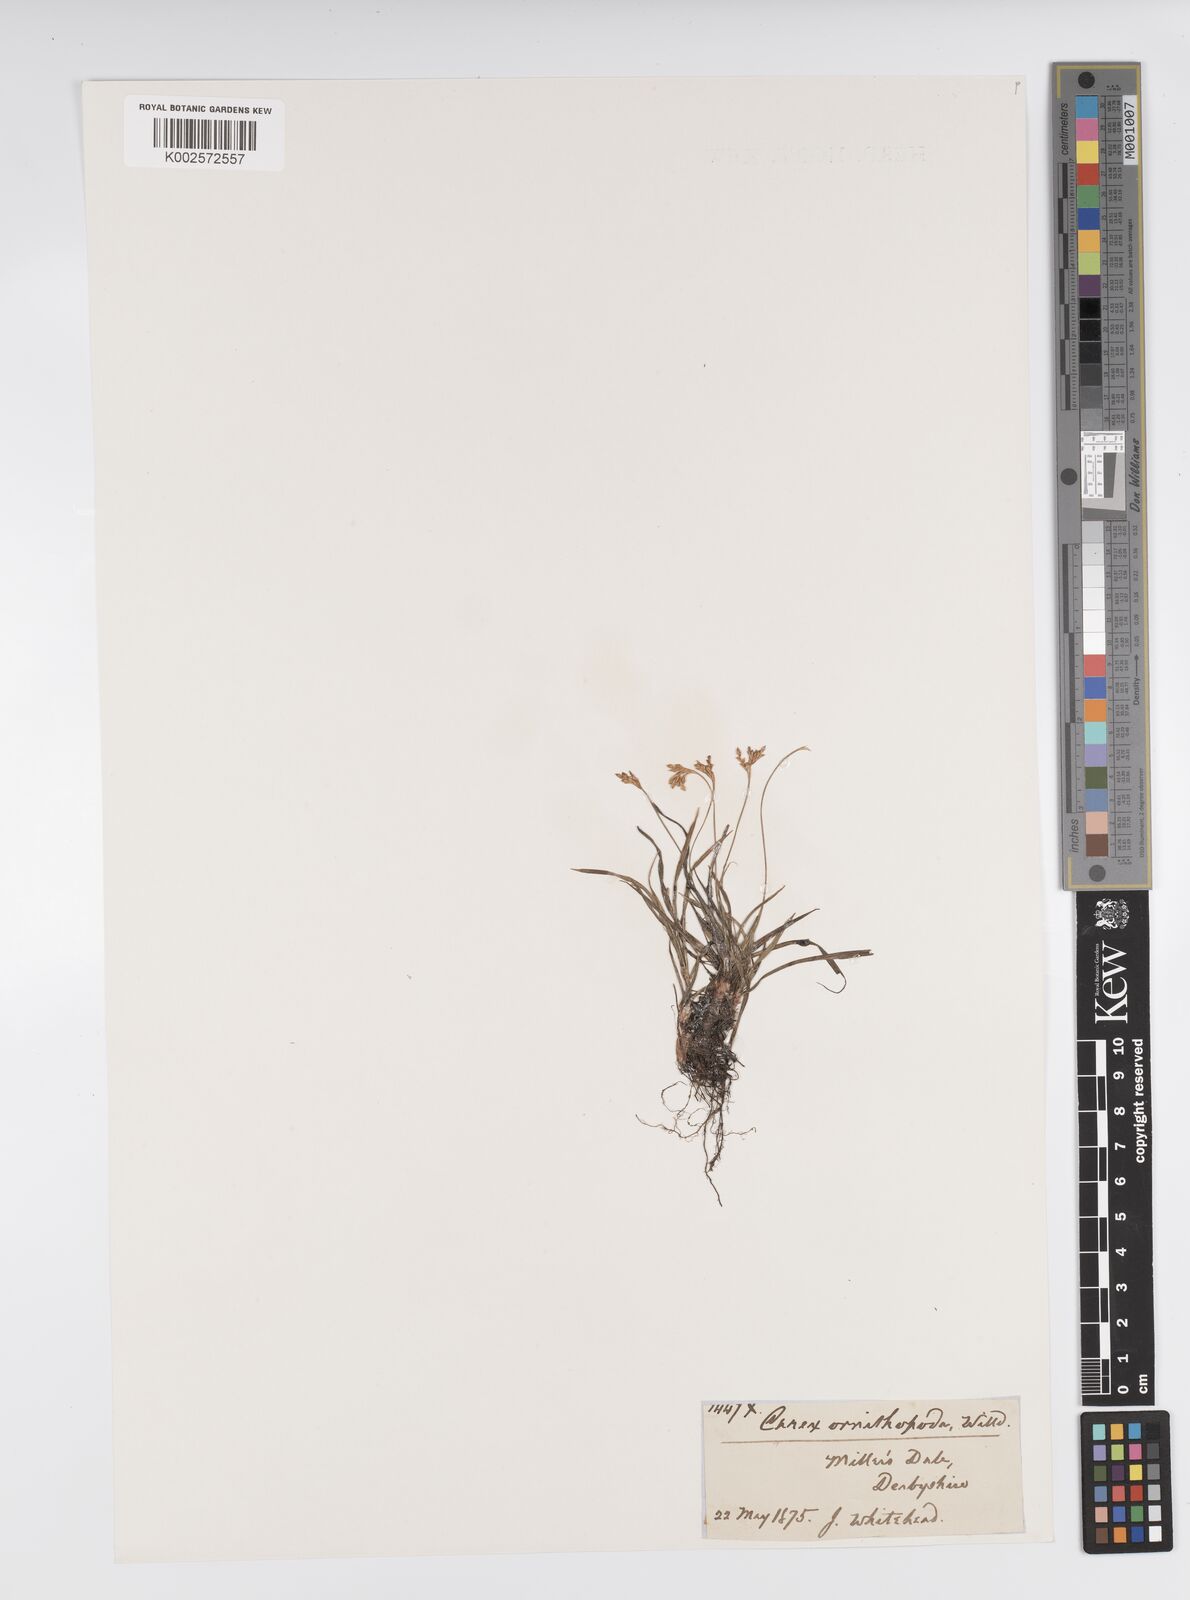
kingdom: Plantae
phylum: Tracheophyta
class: Liliopsida
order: Poales
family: Cyperaceae
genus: Carex
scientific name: Carex ornithopoda
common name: Bird's-foot sedge
